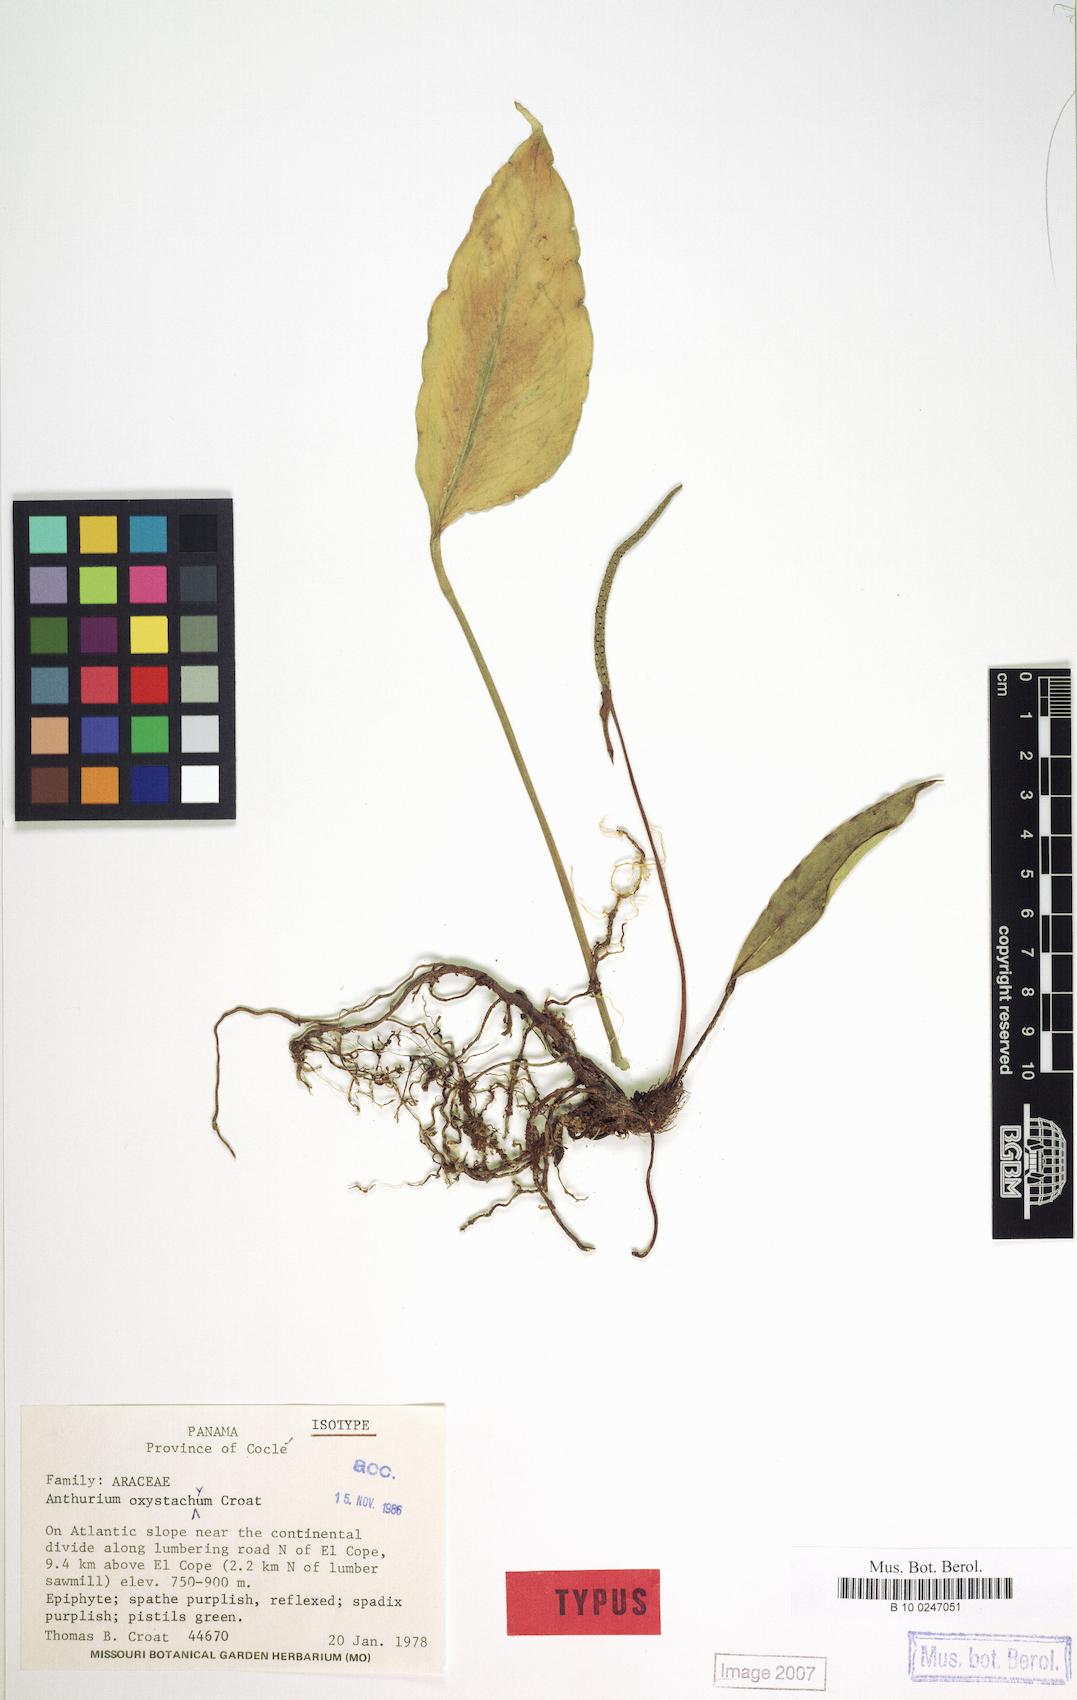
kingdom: Plantae
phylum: Tracheophyta
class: Liliopsida
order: Alismatales
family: Araceae
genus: Anthurium
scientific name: Anthurium oxystachyum
